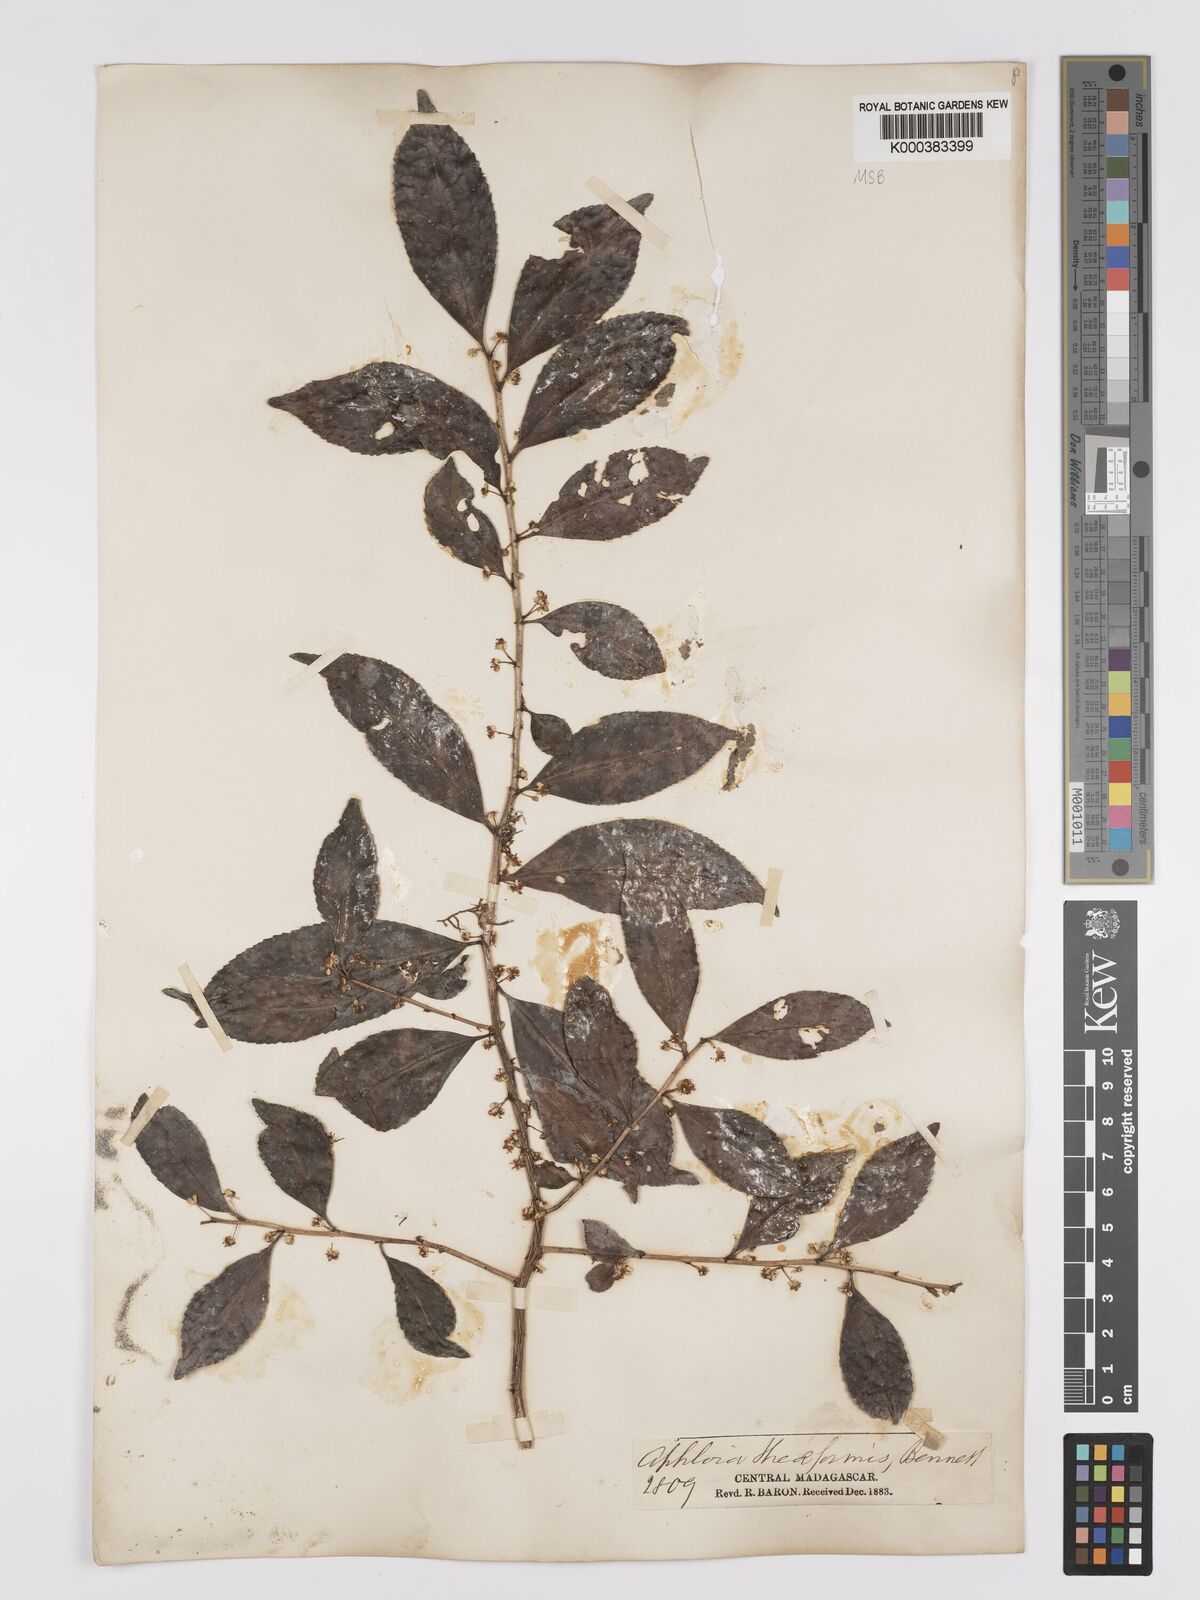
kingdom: Plantae
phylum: Tracheophyta
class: Magnoliopsida
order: Crossosomatales
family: Aphloiaceae
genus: Aphloia
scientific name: Aphloia theiformis
